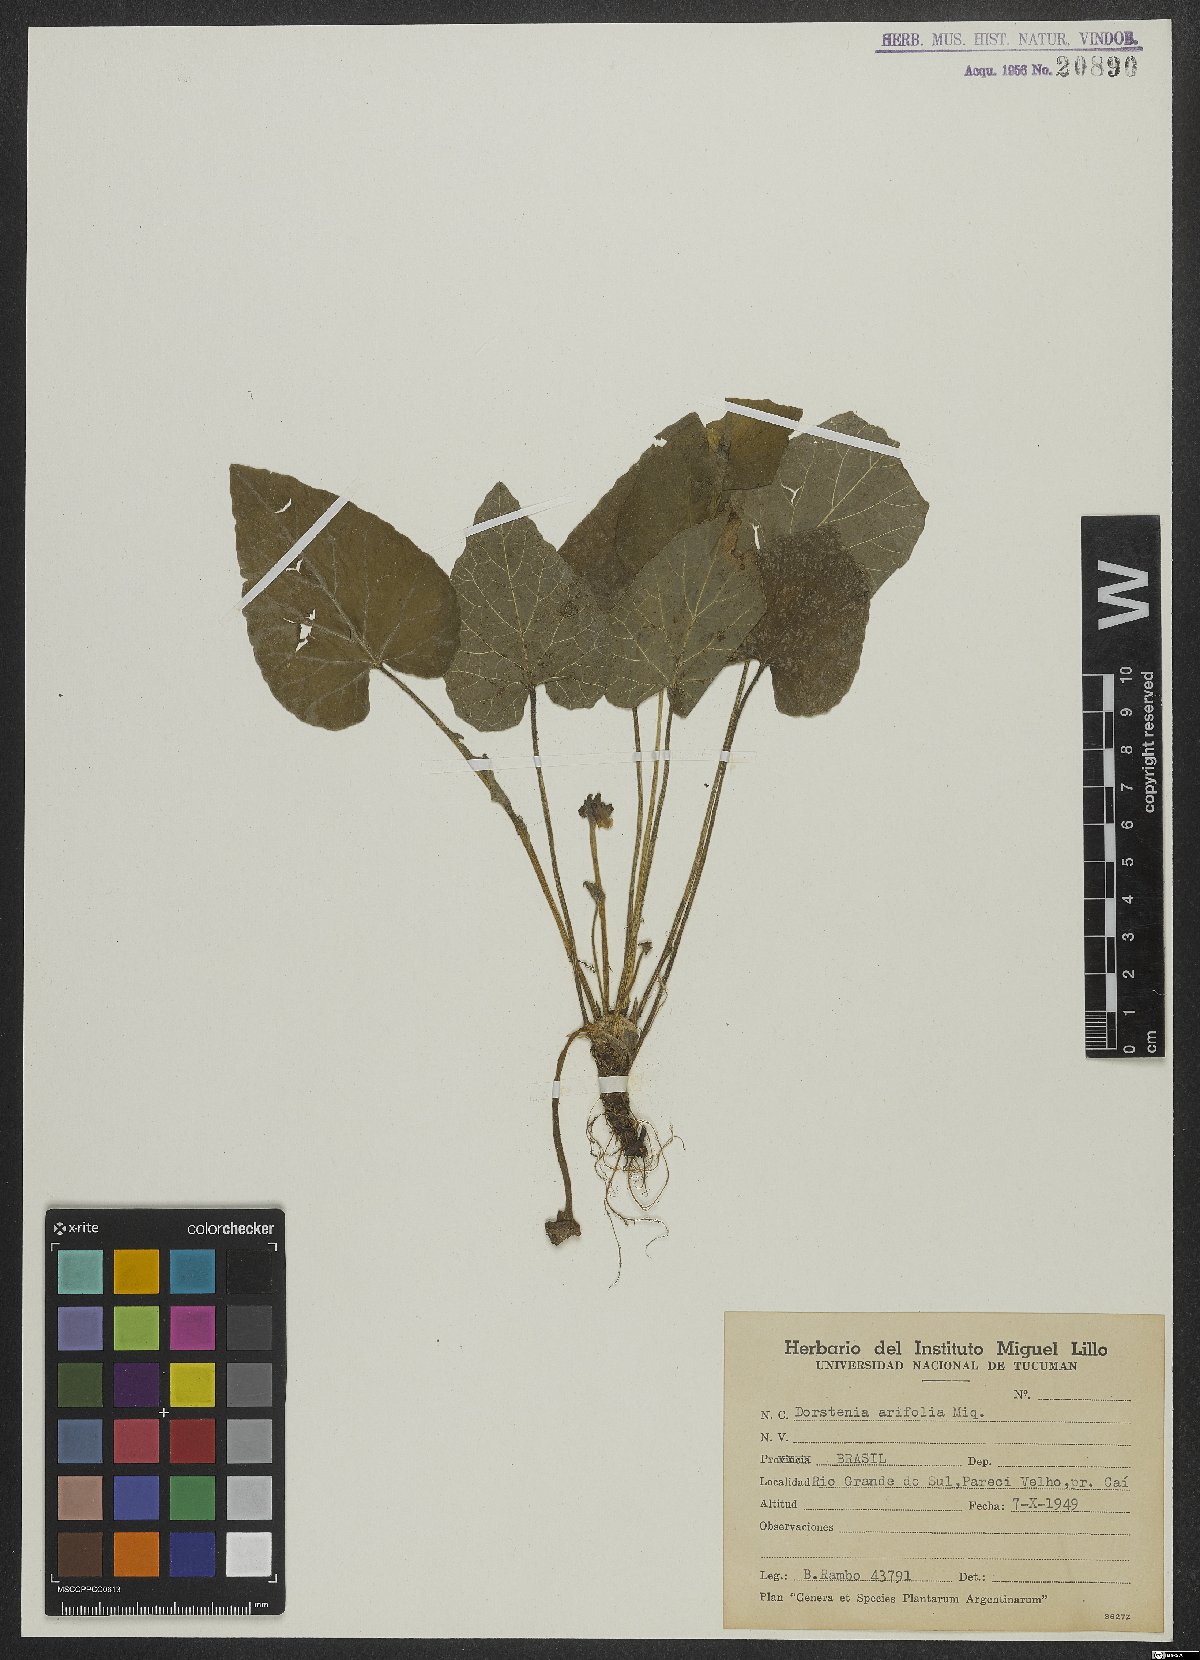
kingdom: Plantae
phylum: Tracheophyta
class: Magnoliopsida
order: Rosales
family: Moraceae
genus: Dorstenia
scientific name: Dorstenia arifolia
